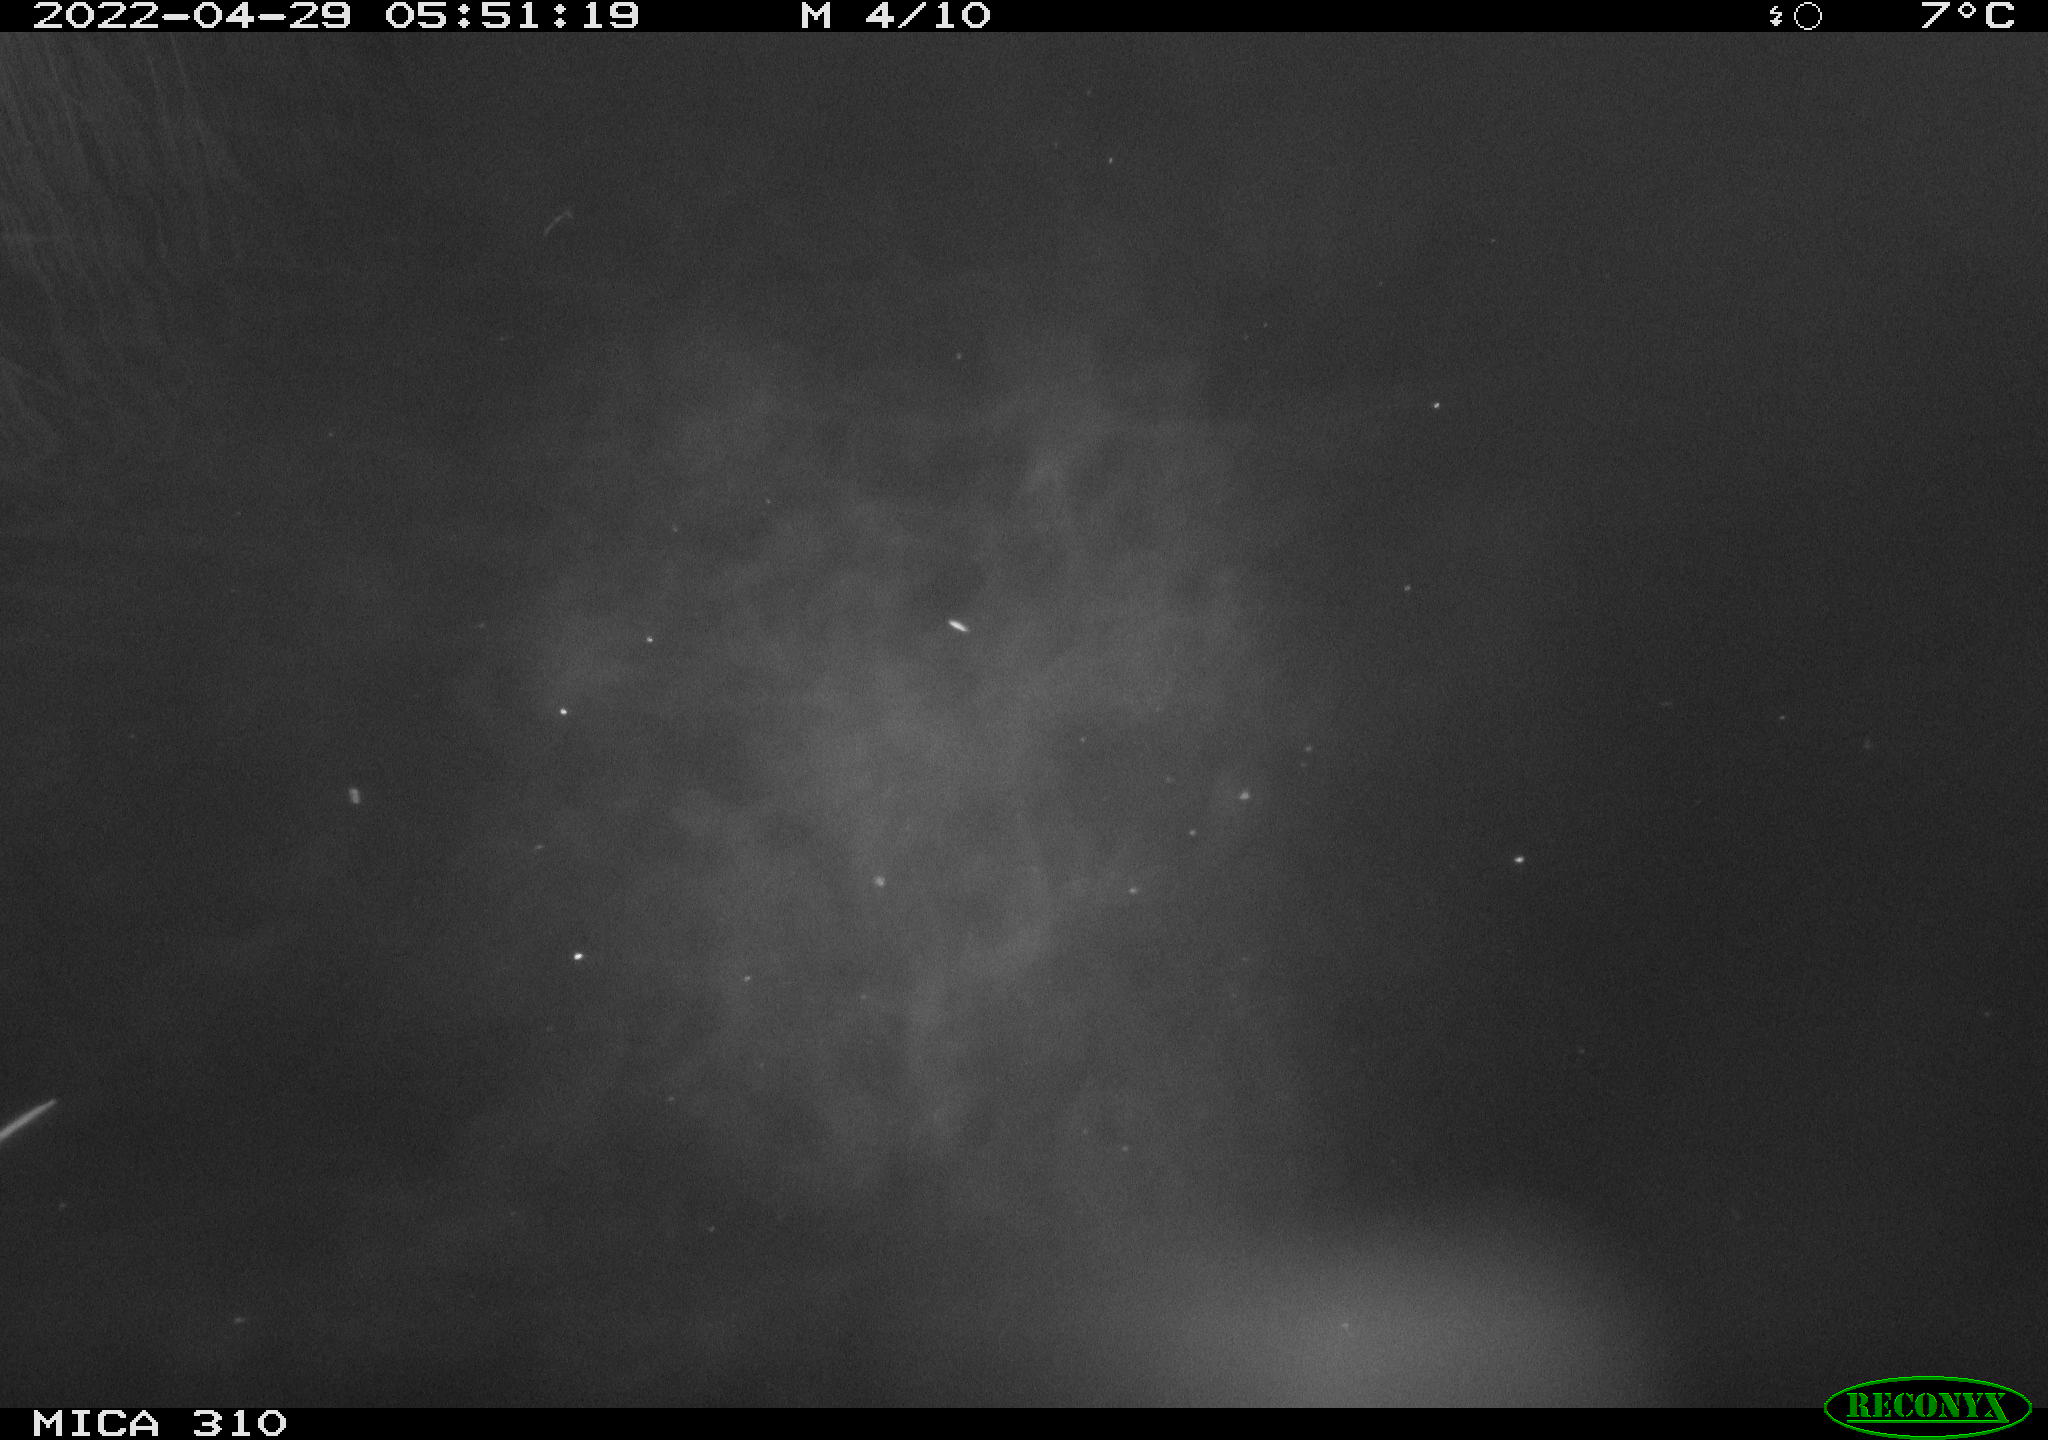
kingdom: Animalia
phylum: Chordata
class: Aves
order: Anseriformes
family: Anatidae
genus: Anas
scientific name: Anas platyrhynchos
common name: Mallard
